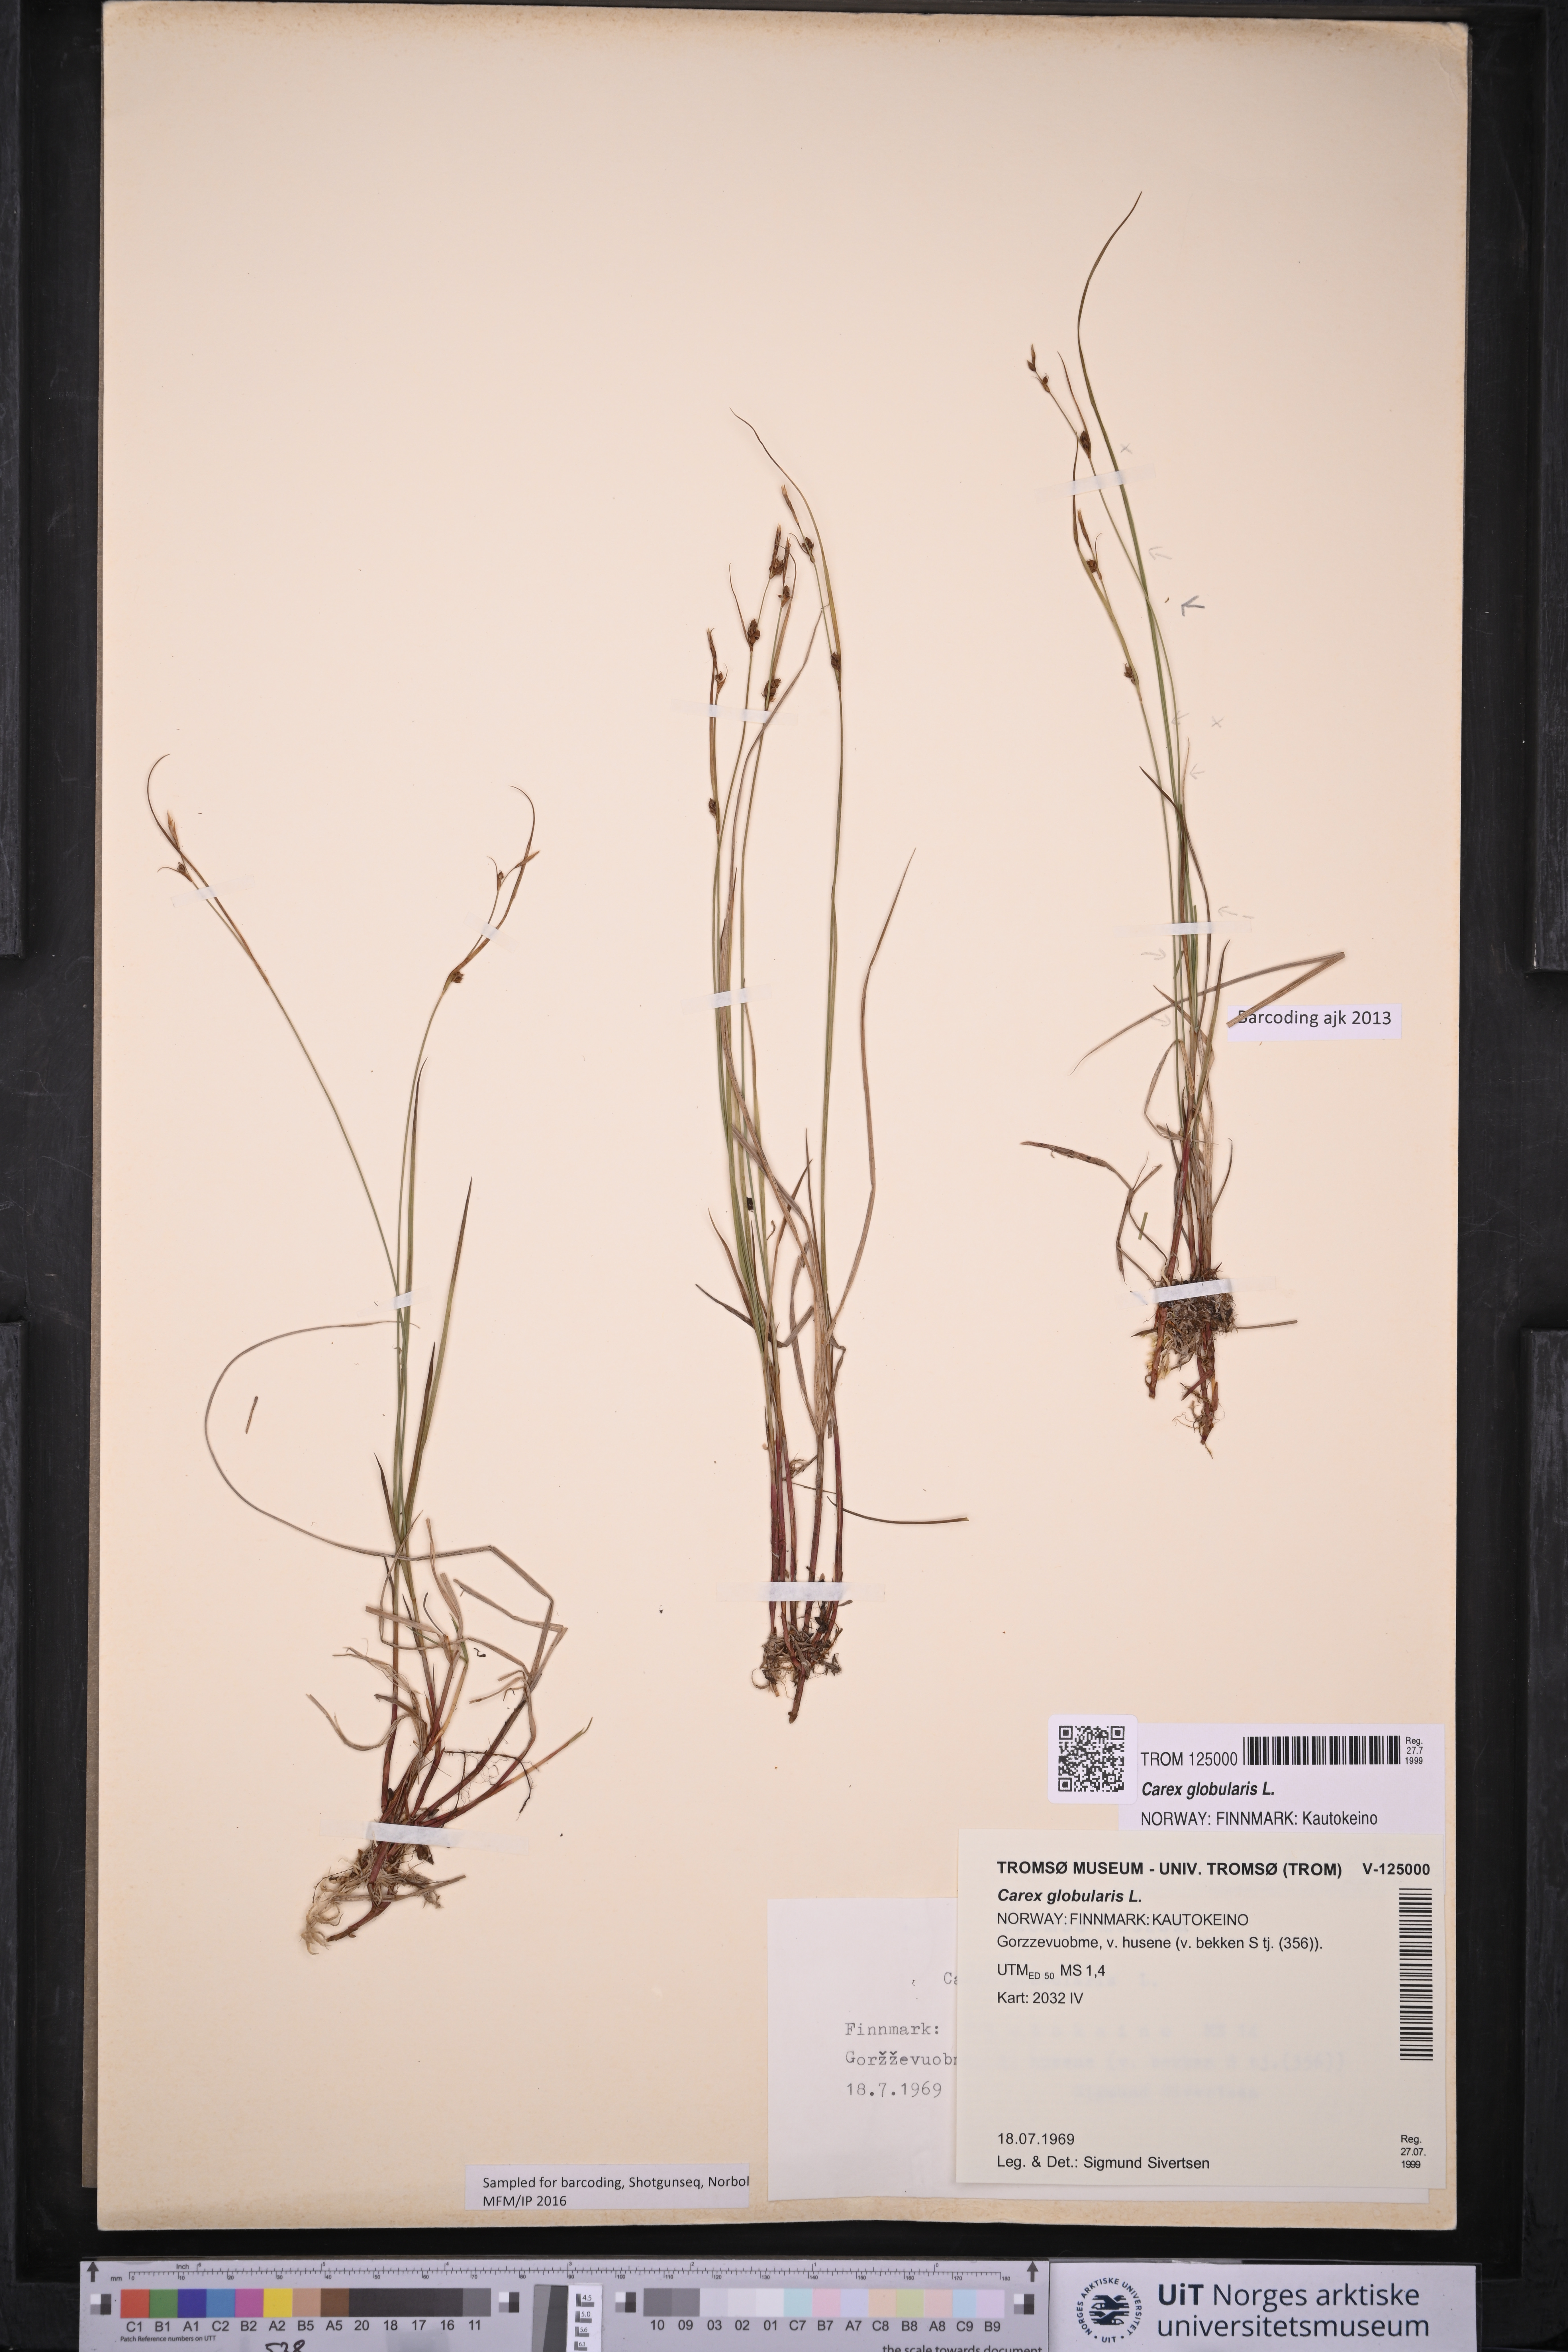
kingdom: Plantae
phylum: Tracheophyta
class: Liliopsida
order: Poales
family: Cyperaceae
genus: Carex
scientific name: Carex globularis
